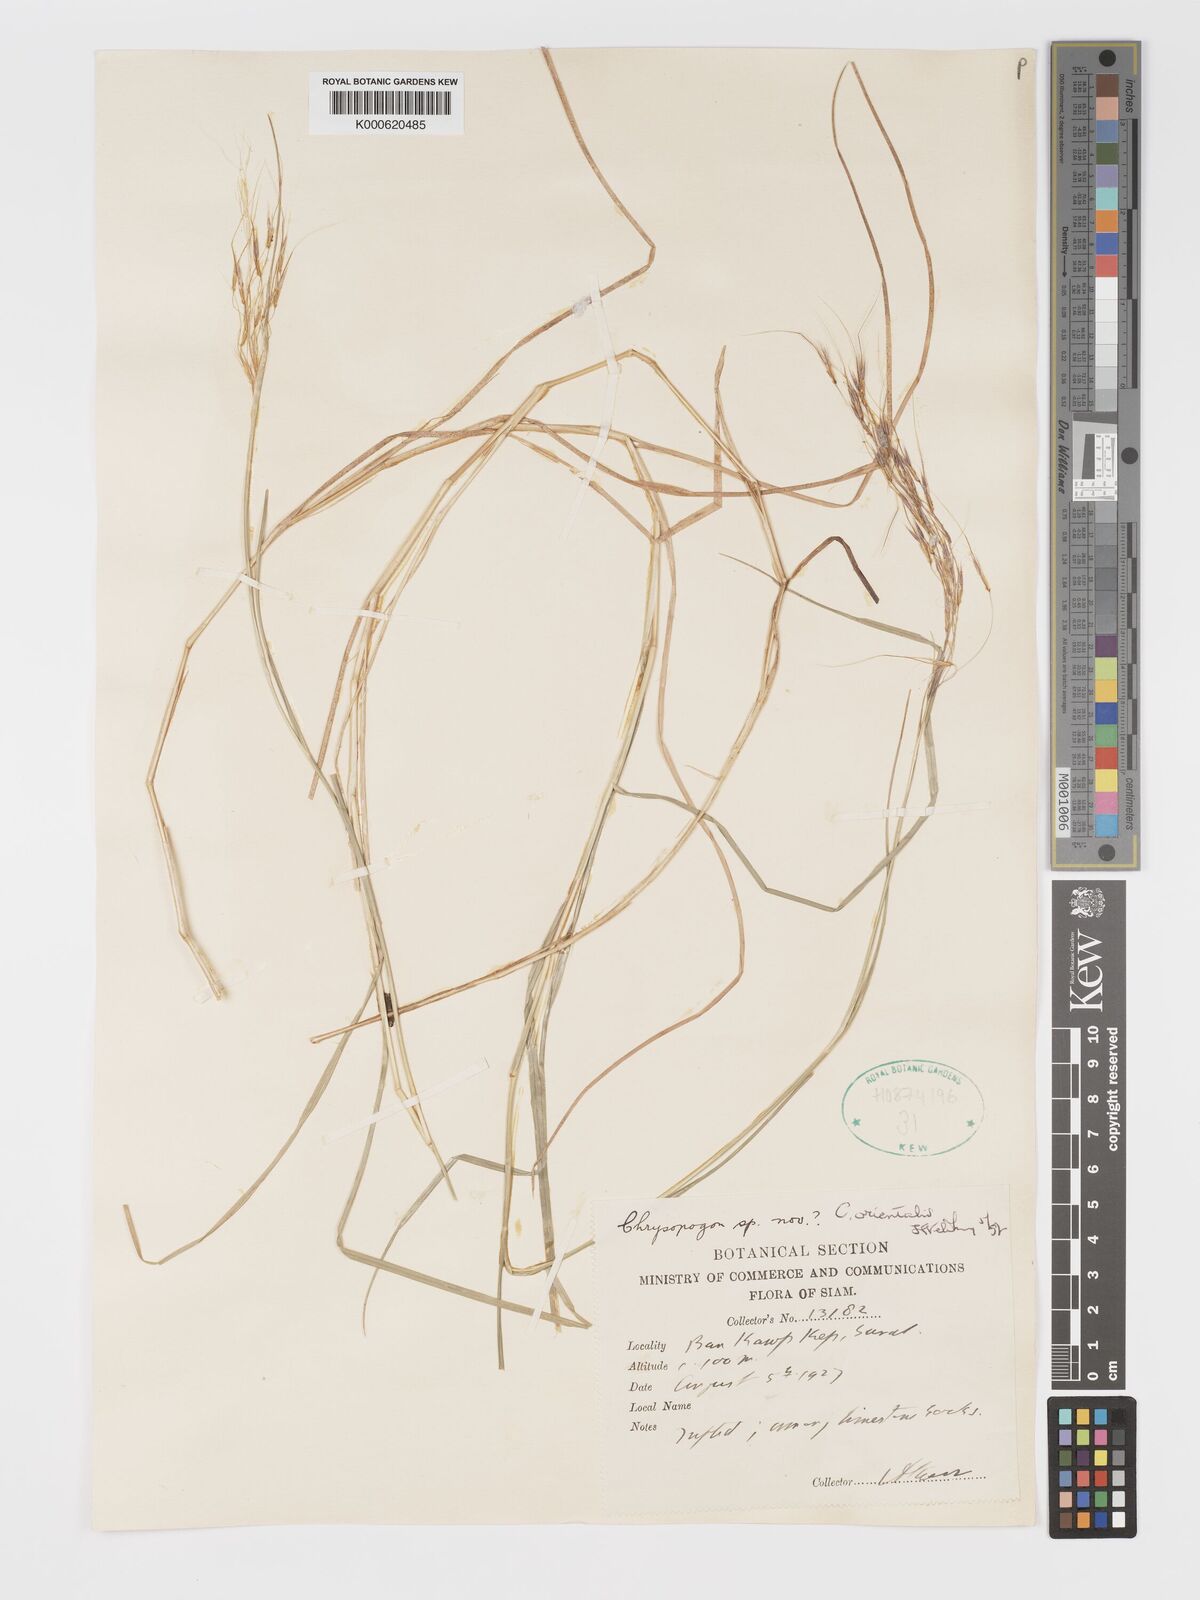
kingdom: Plantae
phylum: Tracheophyta
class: Liliopsida
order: Poales
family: Poaceae
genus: Chrysopogon
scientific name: Chrysopogon orientalis
